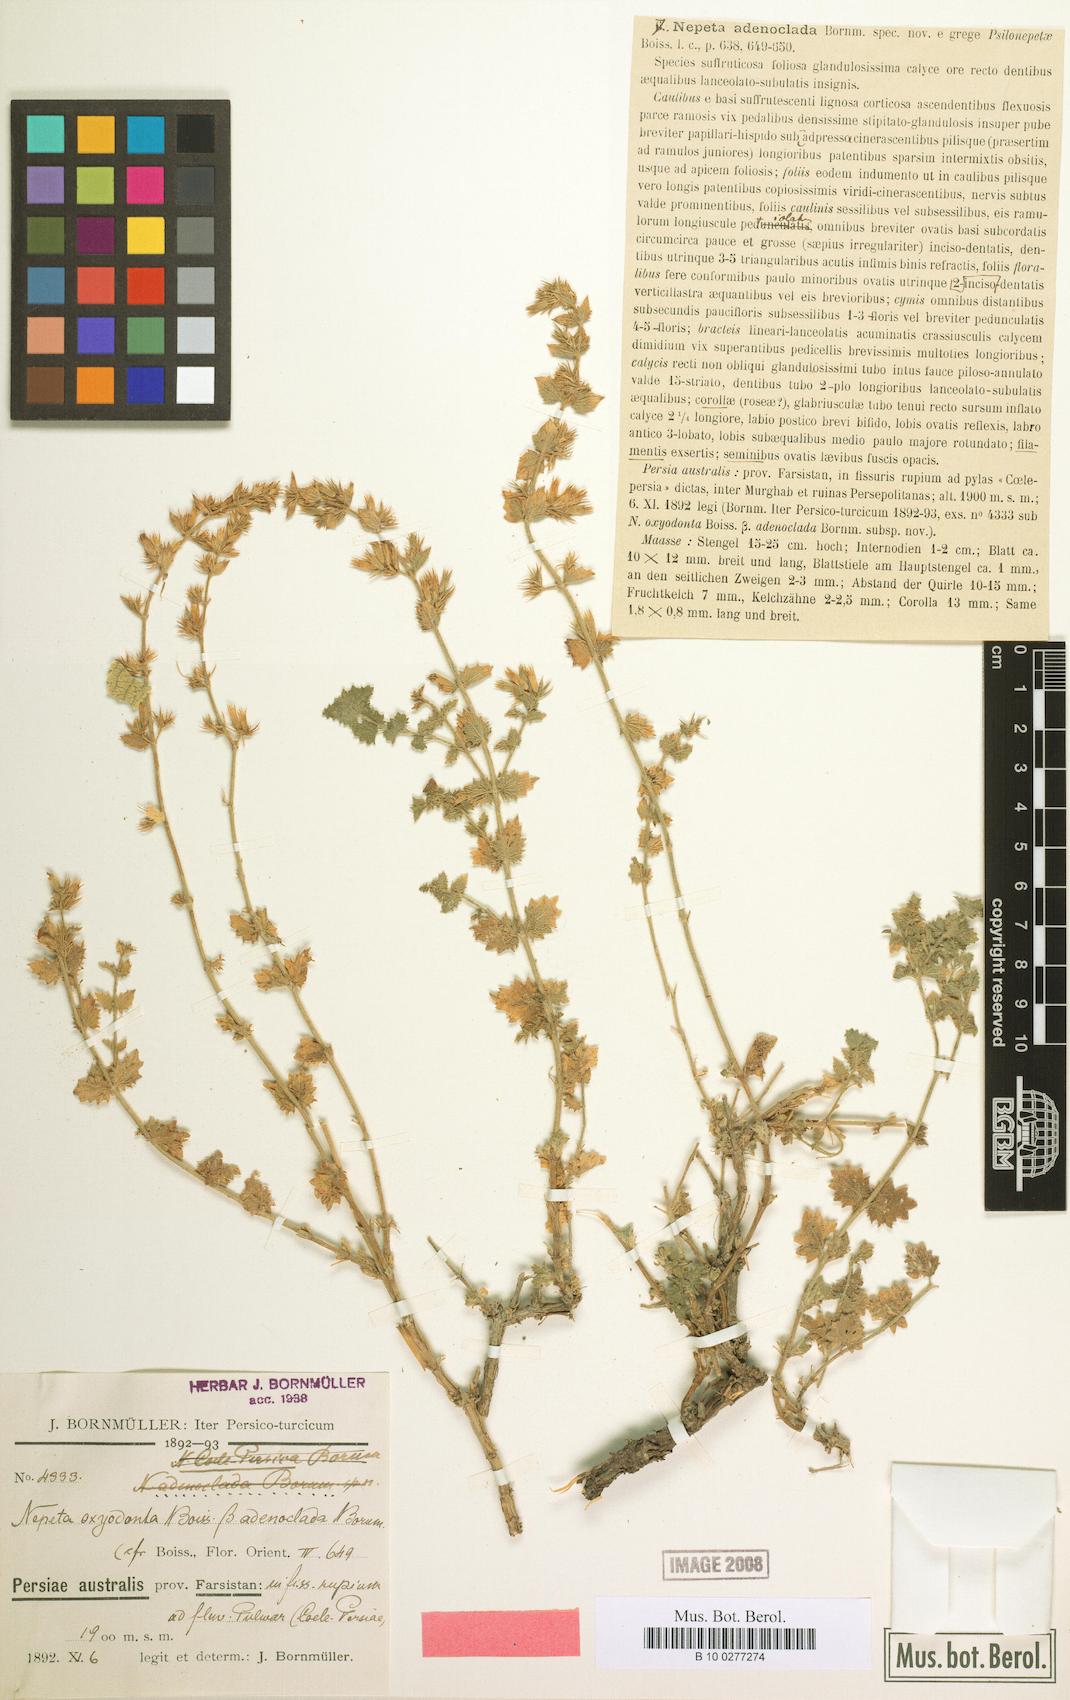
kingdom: Plantae
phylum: Tracheophyta
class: Magnoliopsida
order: Lamiales
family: Lamiaceae
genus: Nepeta
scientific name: Nepeta adenoclada
